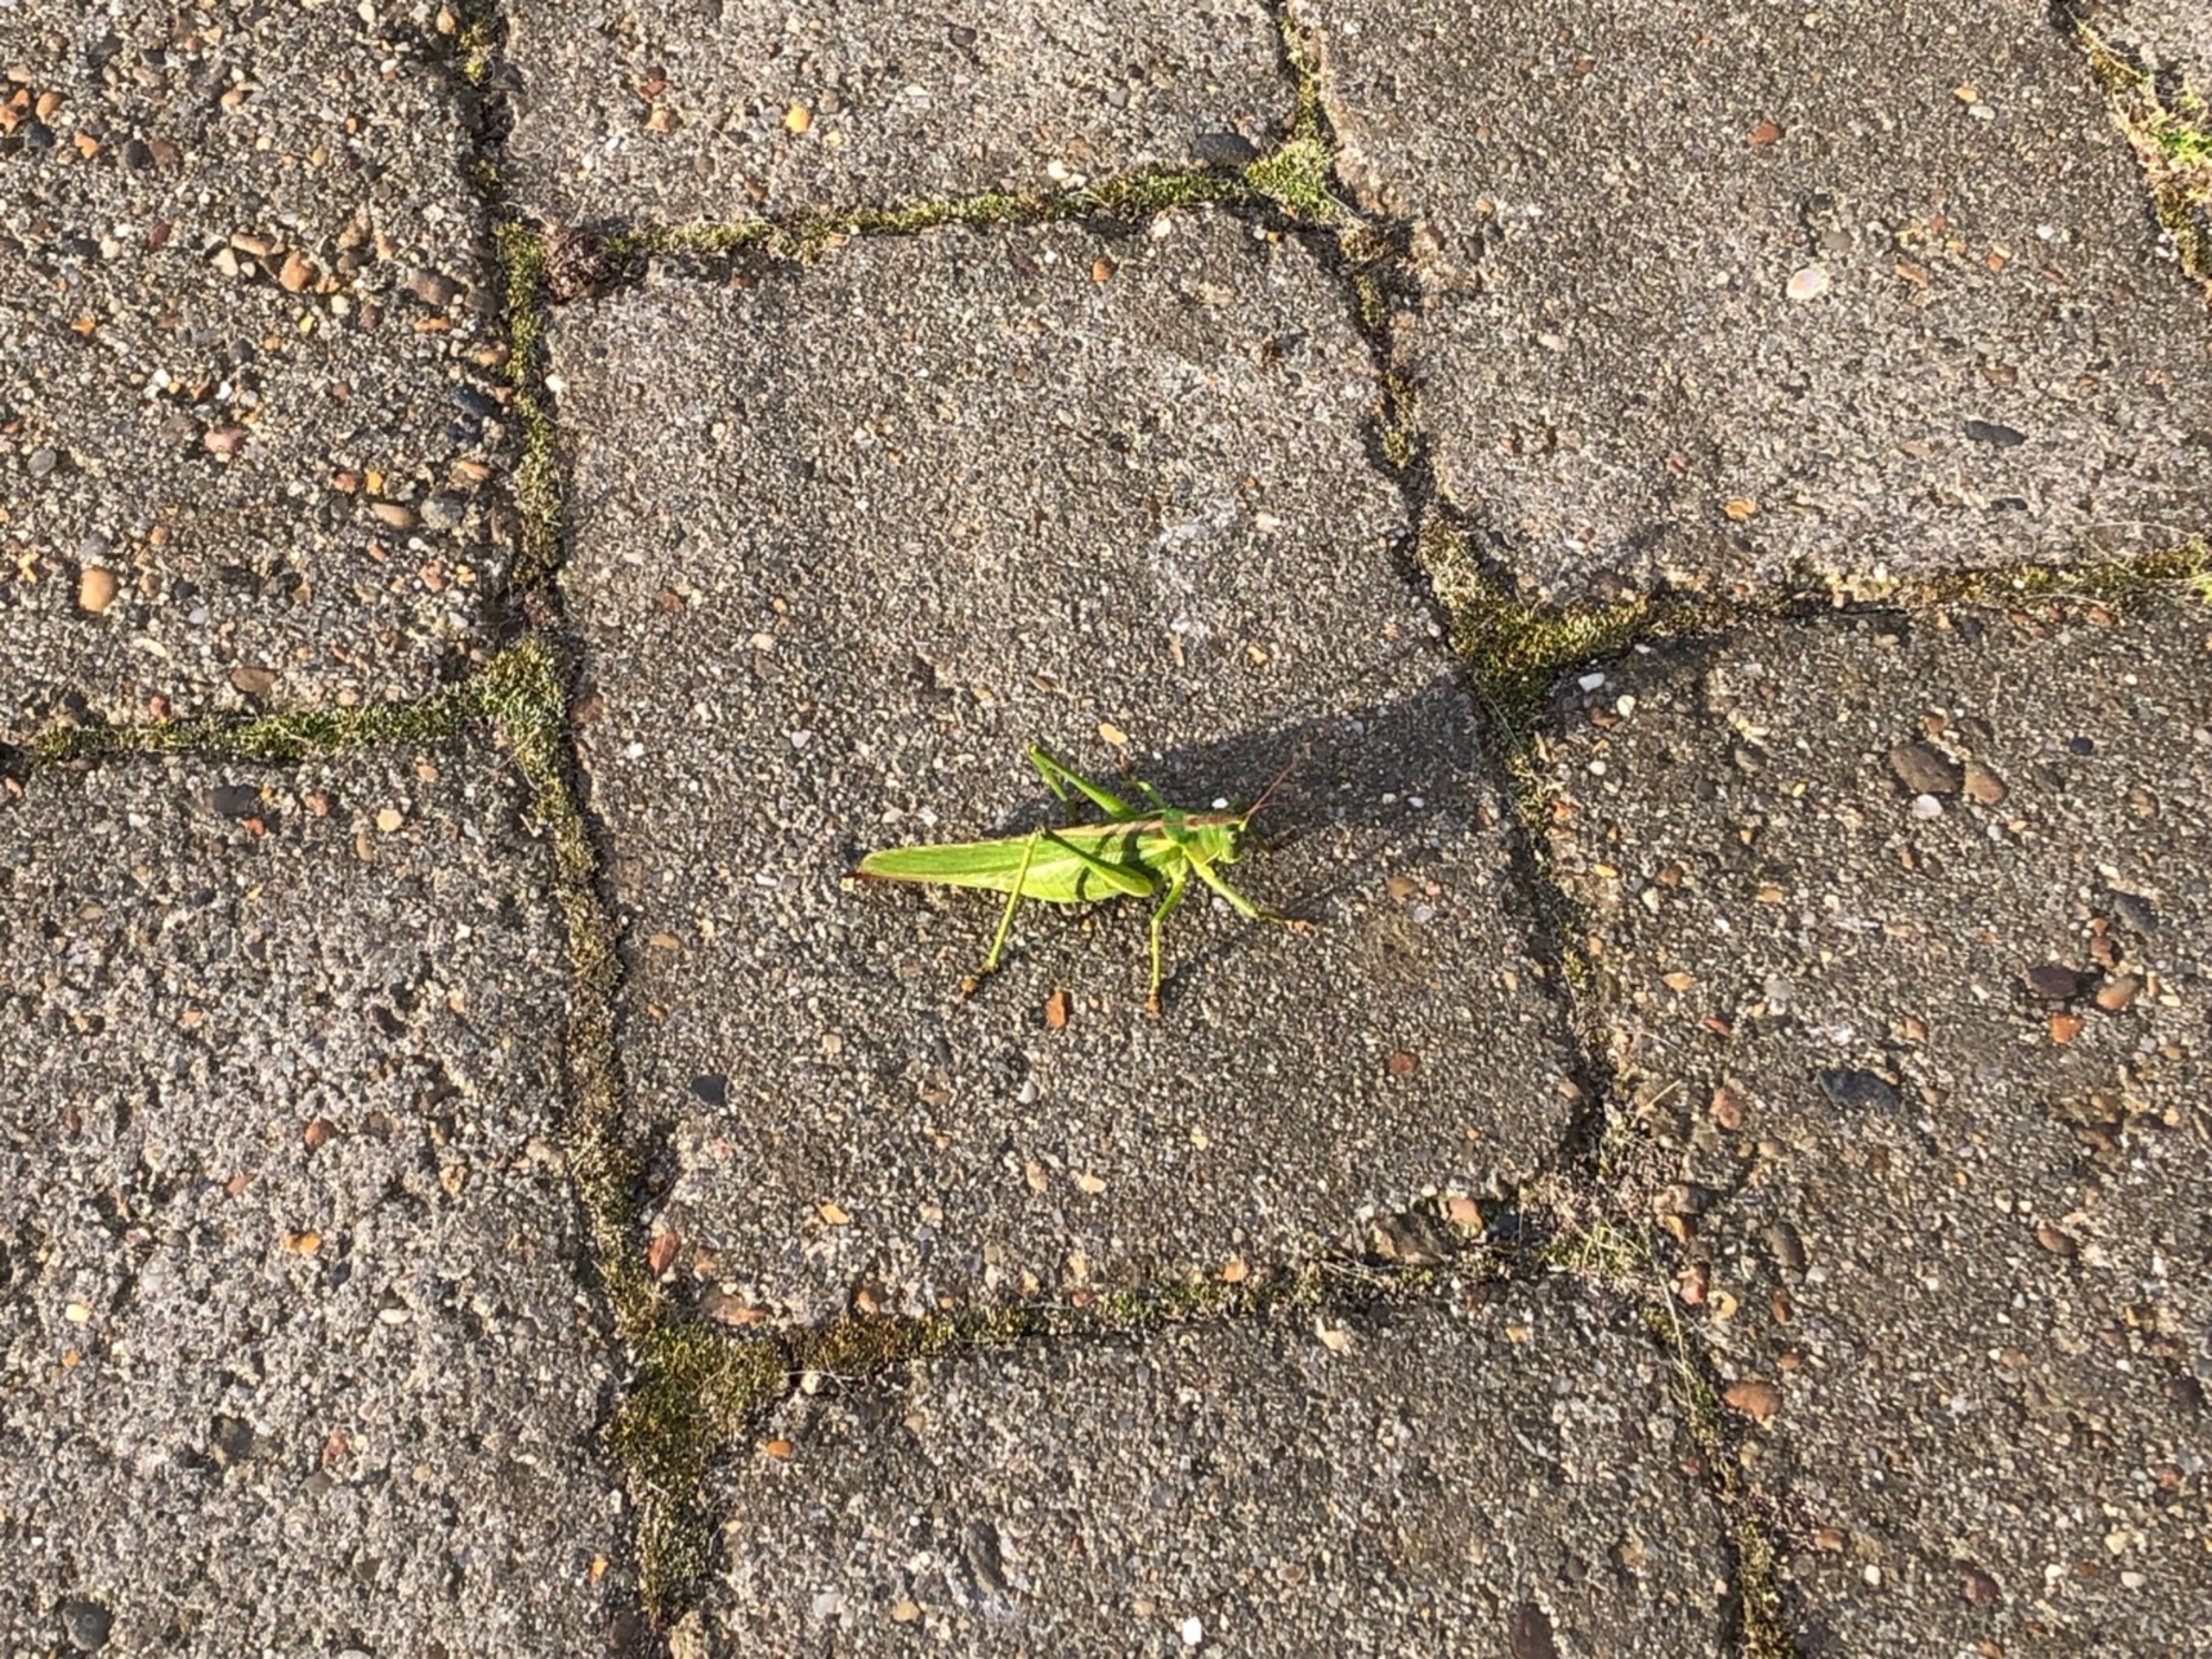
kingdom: Animalia
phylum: Arthropoda
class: Insecta
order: Orthoptera
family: Tettigoniidae
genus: Tettigonia
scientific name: Tettigonia viridissima
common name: Stor grøn løvgræshoppe
